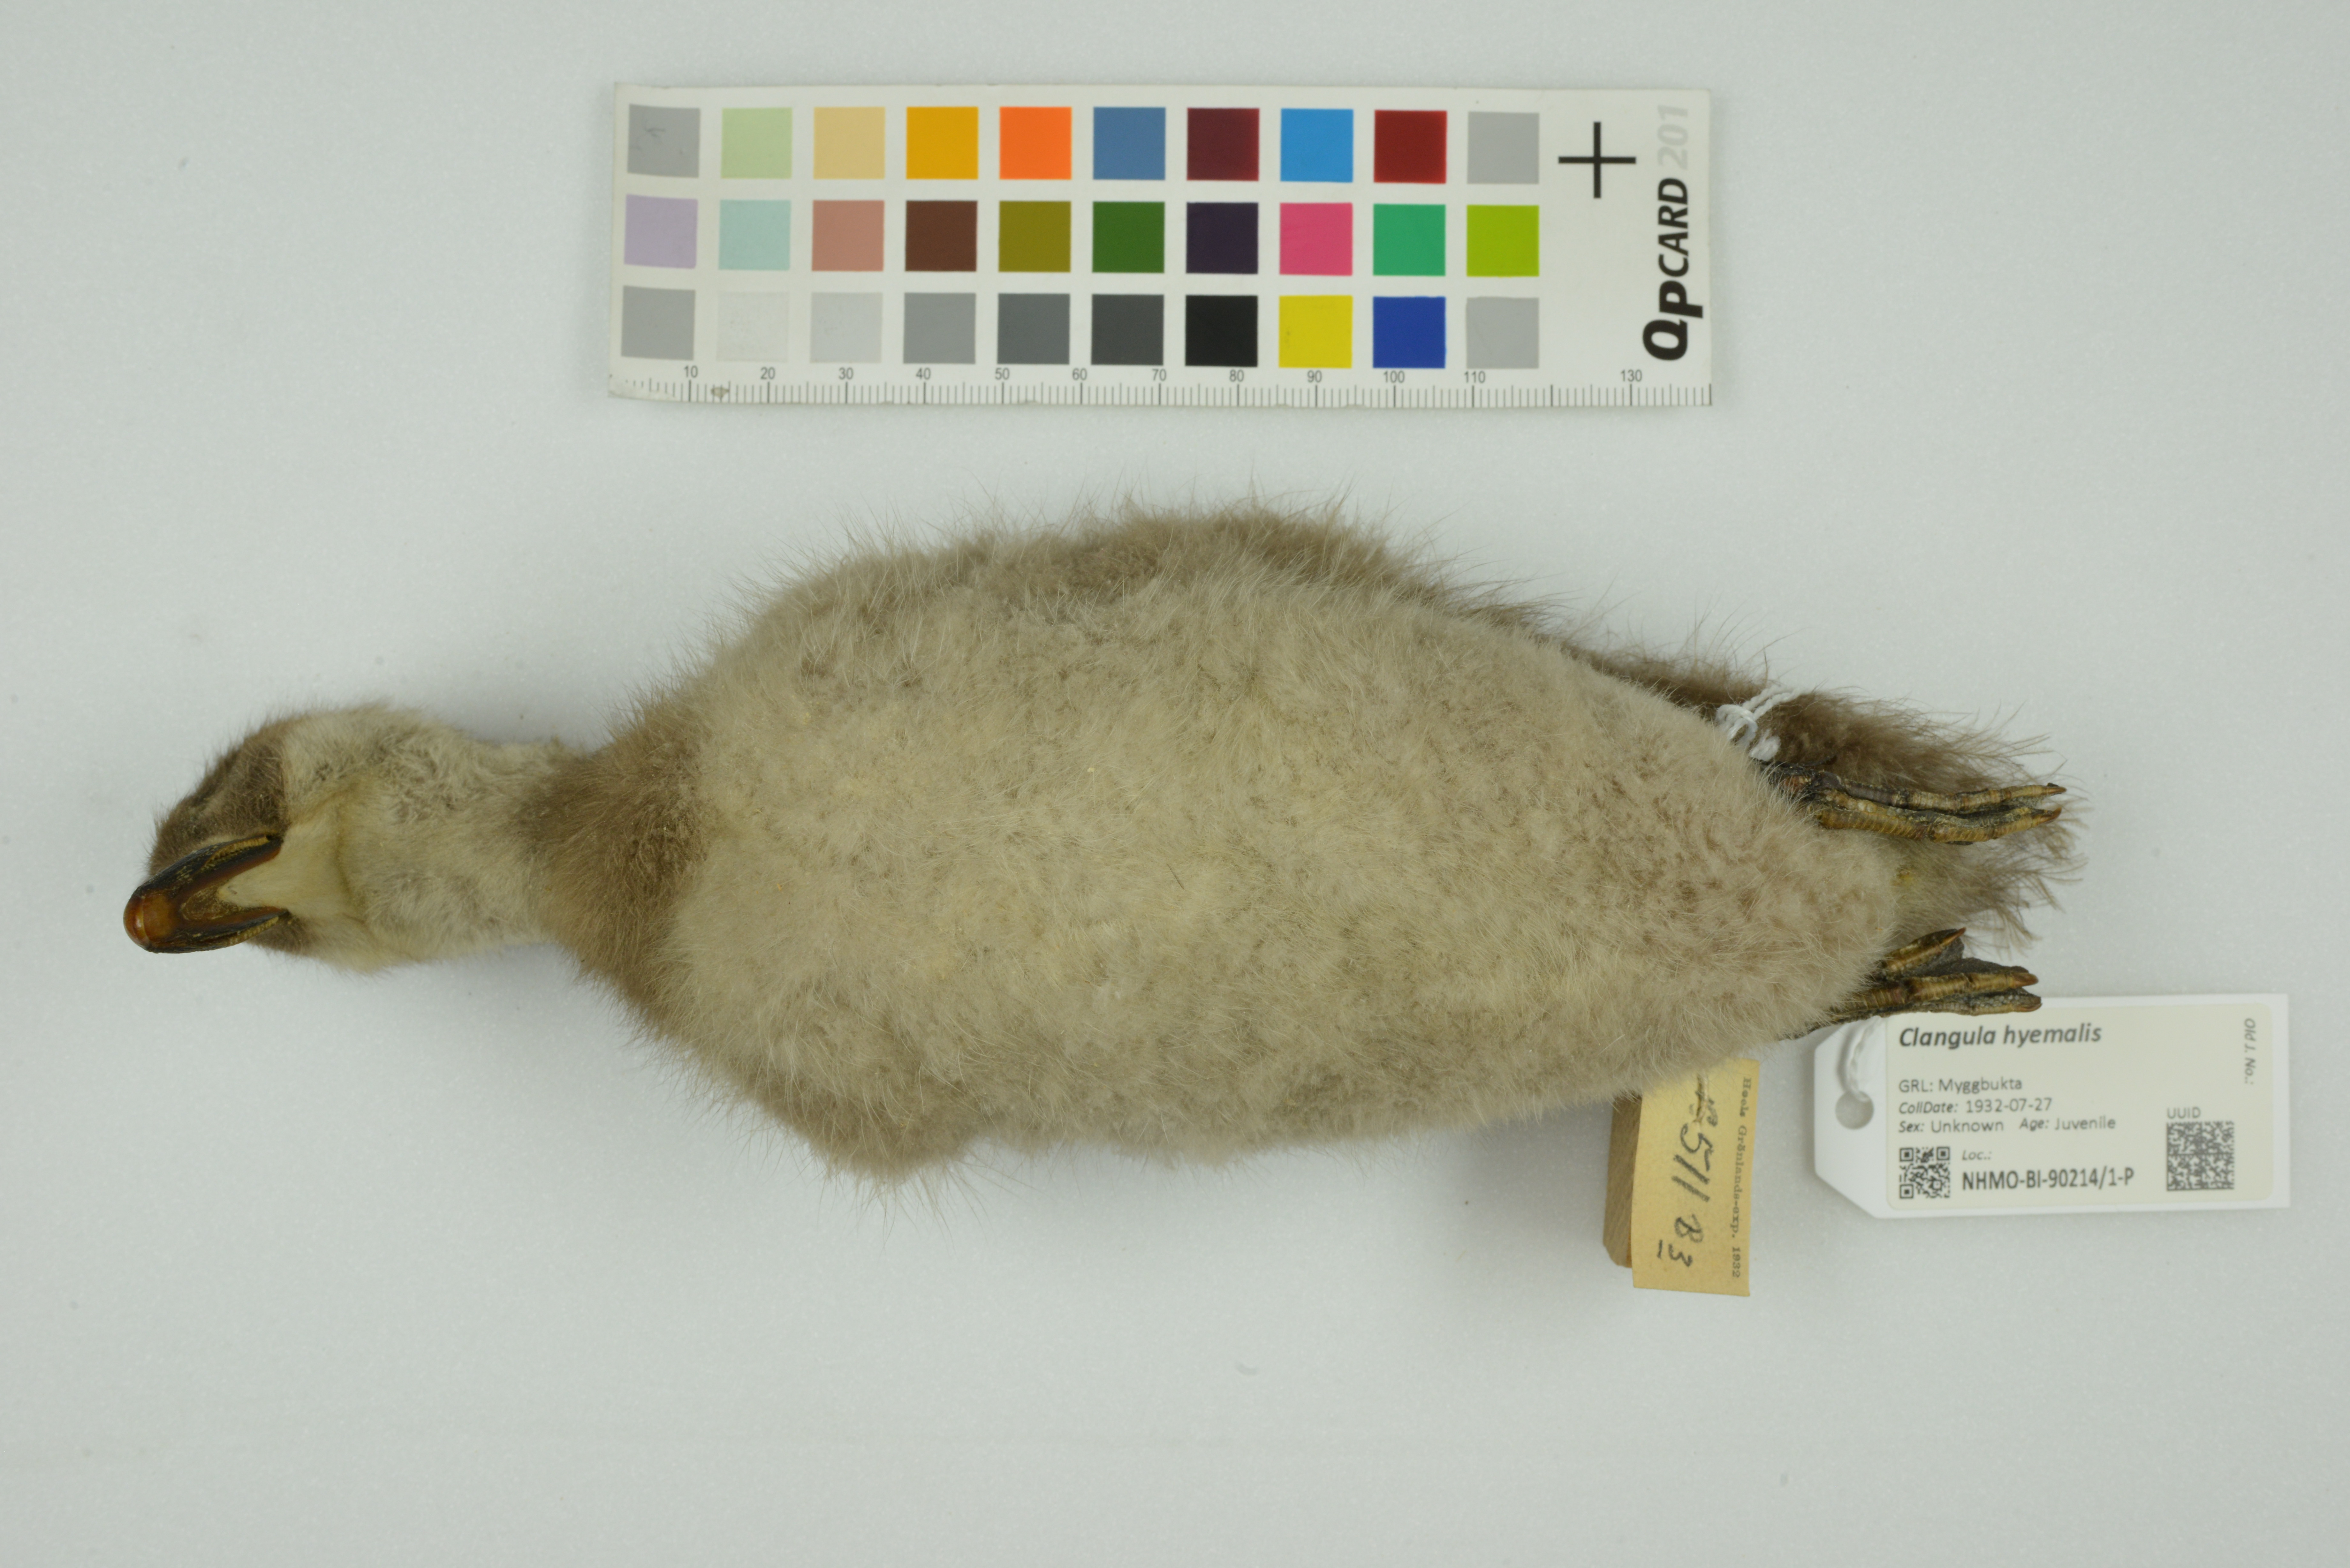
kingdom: Animalia
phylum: Chordata
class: Aves
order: Anseriformes
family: Anatidae
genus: Clangula
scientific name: Clangula hyemalis
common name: Long-tailed duck
